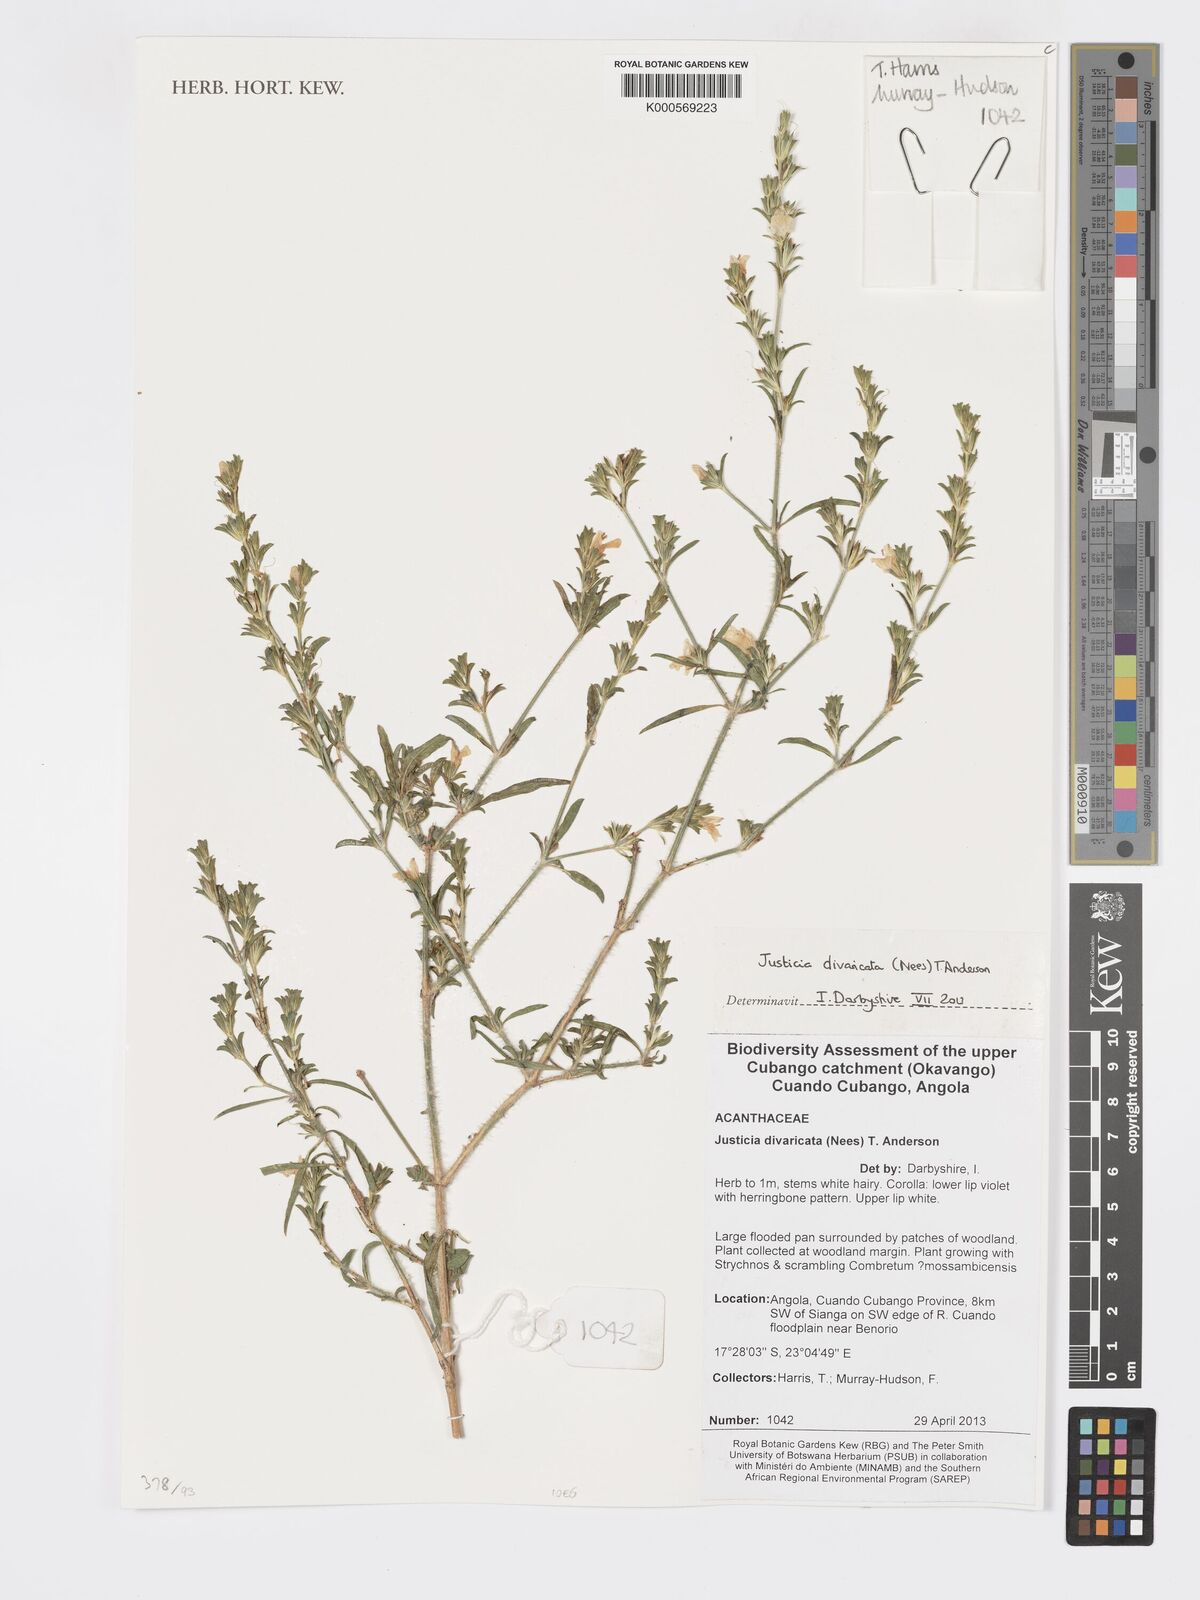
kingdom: Plantae
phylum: Tracheophyta
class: Magnoliopsida
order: Lamiales
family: Acanthaceae
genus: Pogonospermum
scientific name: Pogonospermum
